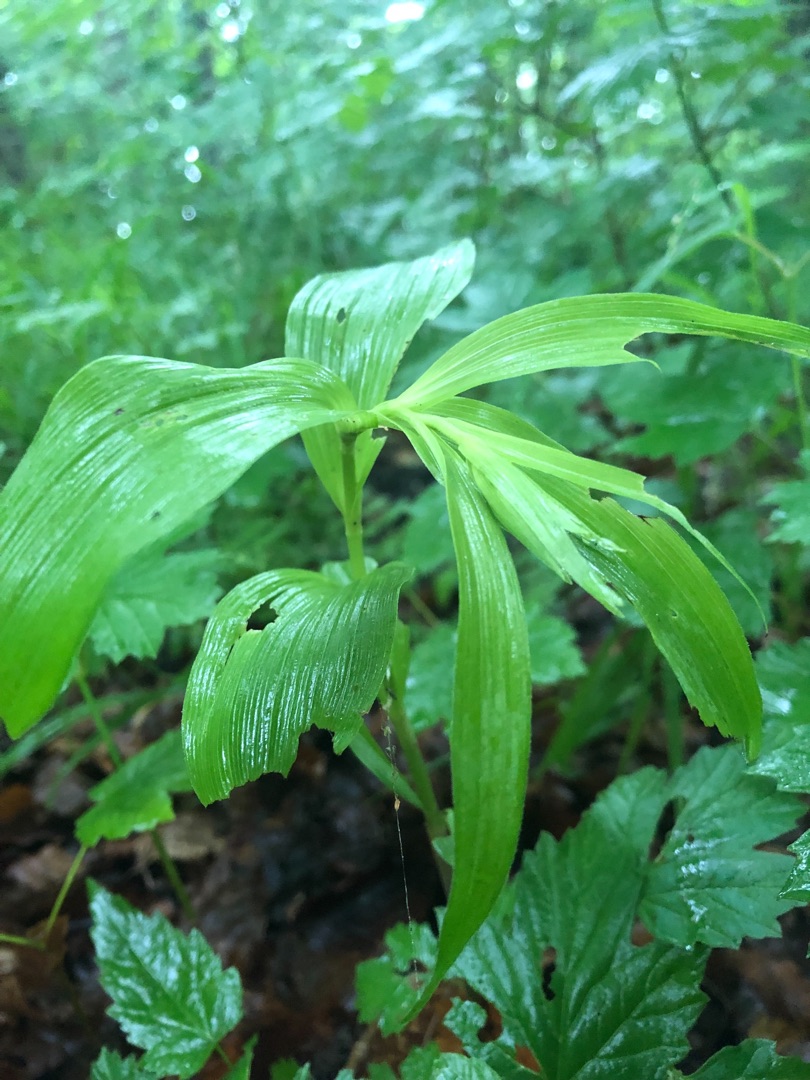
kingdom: Plantae
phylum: Tracheophyta
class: Liliopsida
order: Asparagales
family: Orchidaceae
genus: Epipactis
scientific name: Epipactis helleborine
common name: Skov-hullæbe
